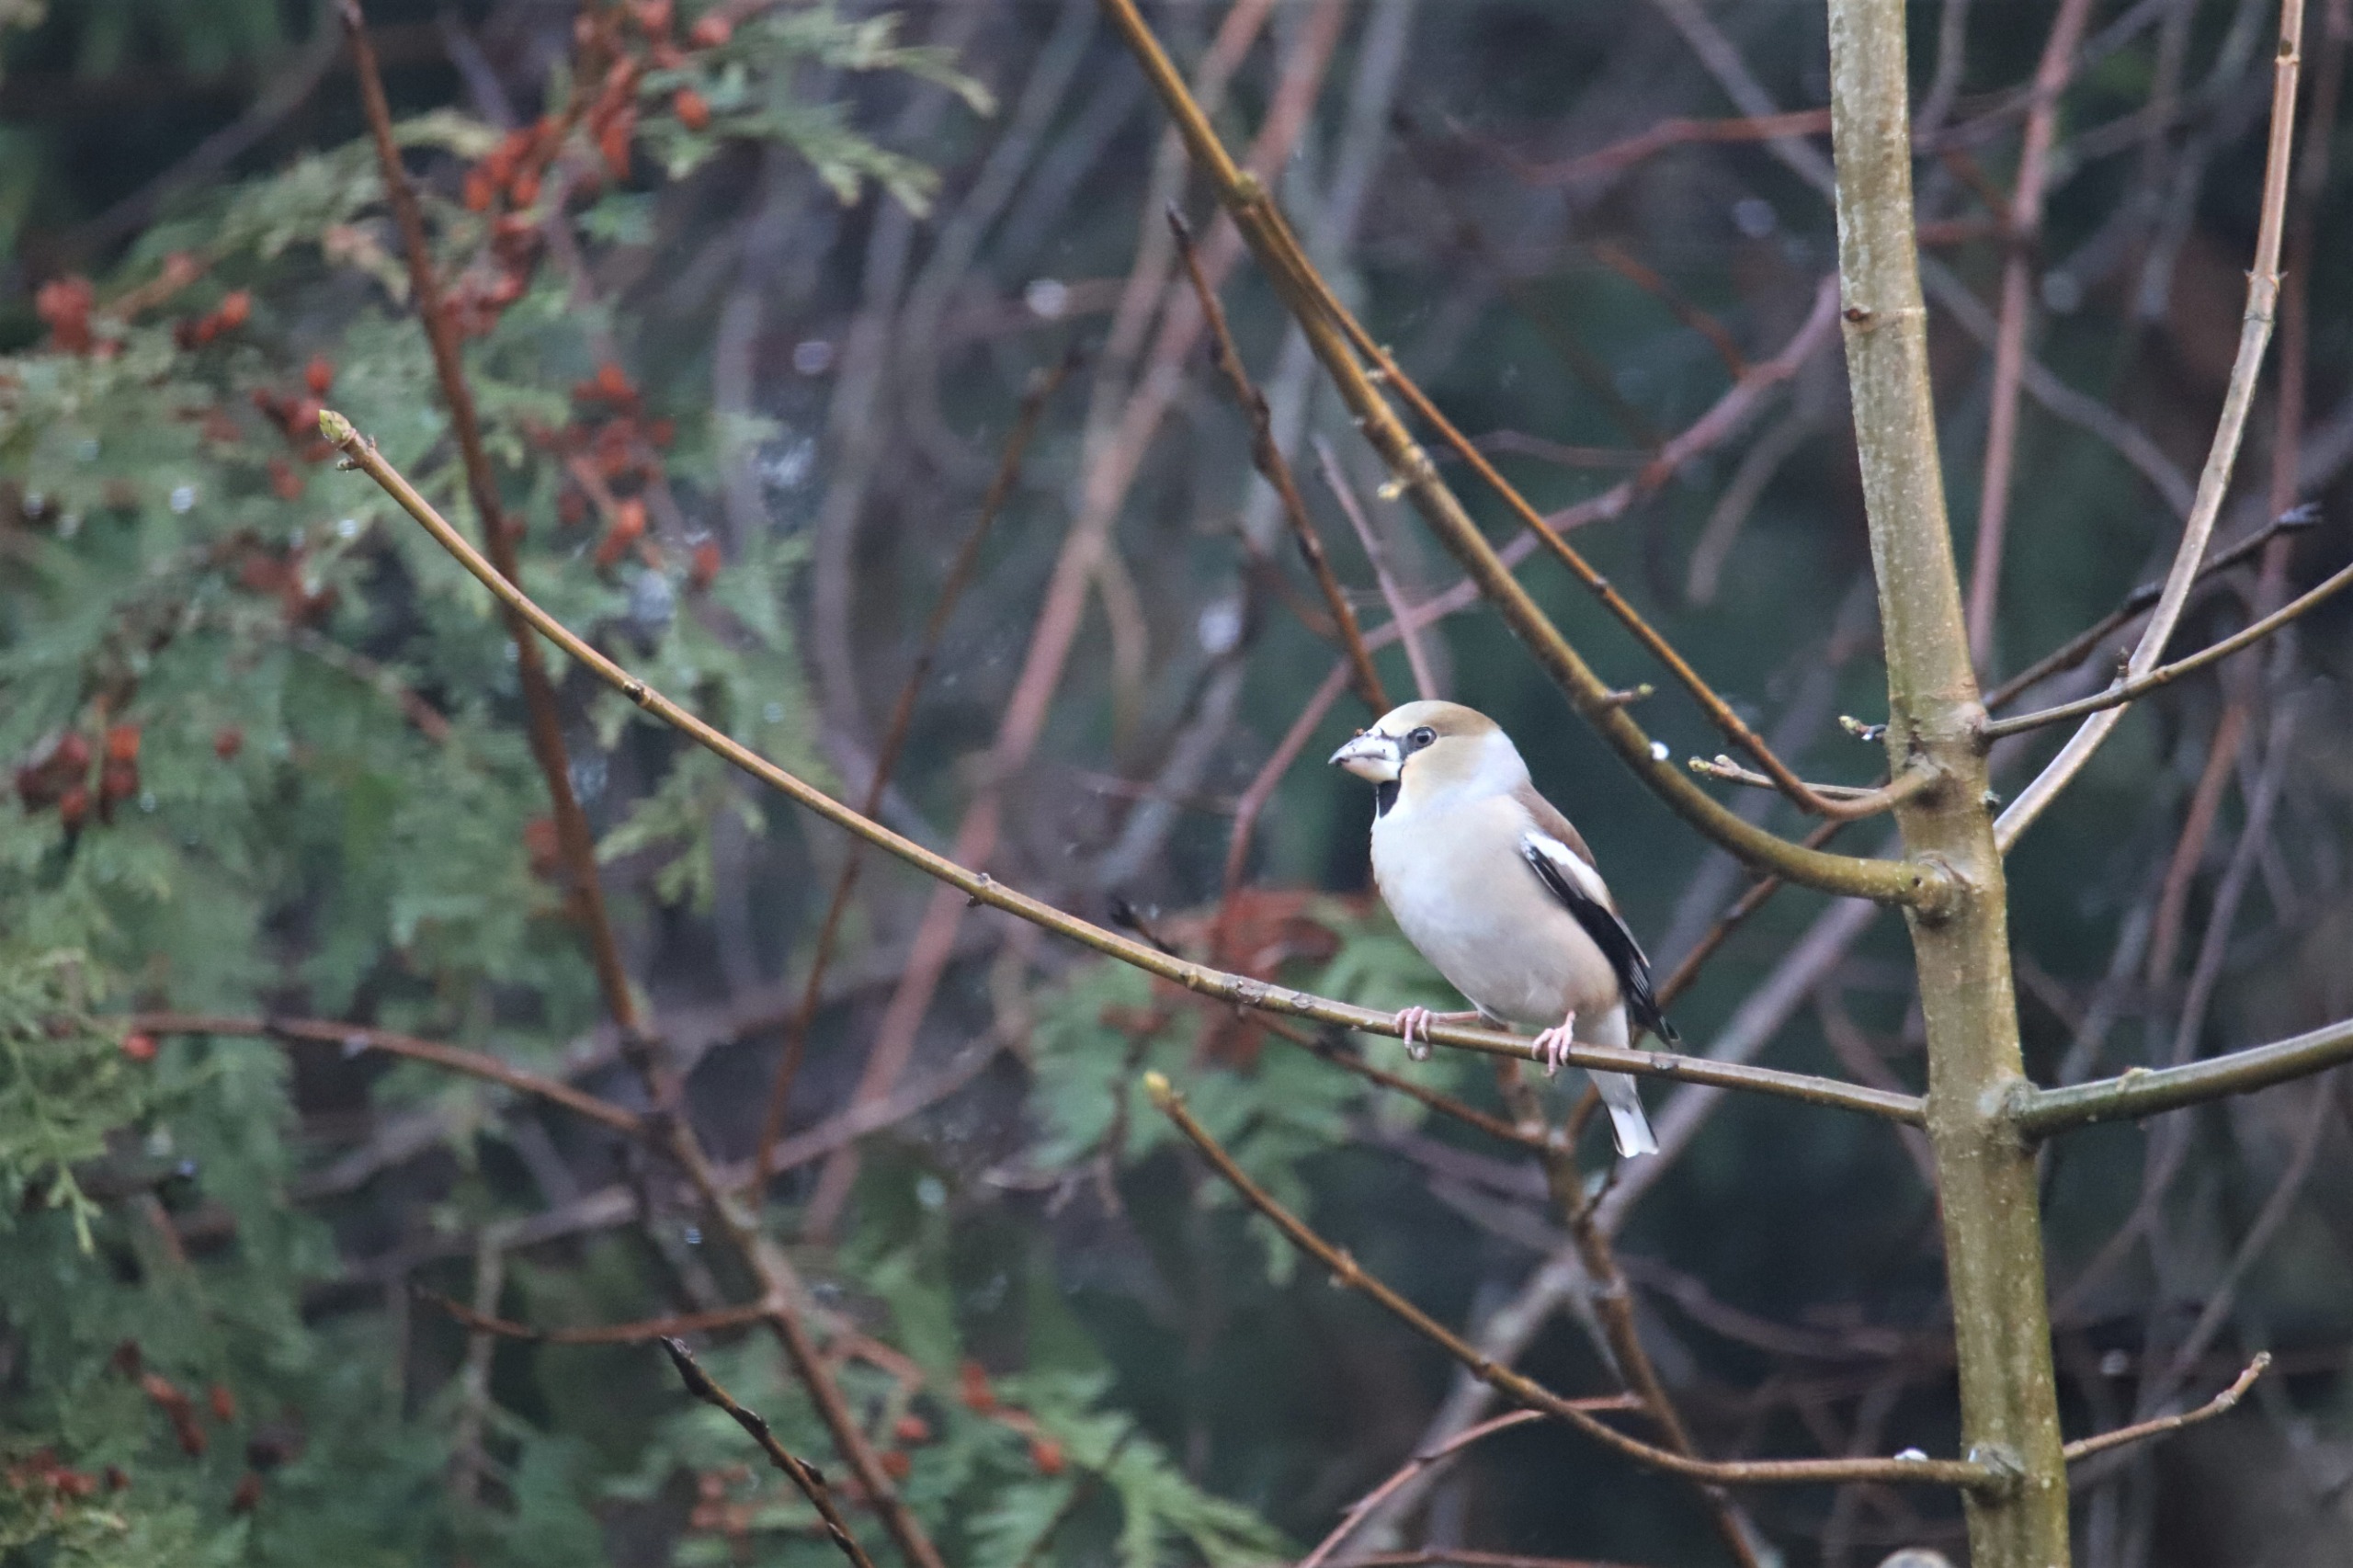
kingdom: Animalia
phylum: Chordata
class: Aves
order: Passeriformes
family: Fringillidae
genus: Coccothraustes
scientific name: Coccothraustes coccothraustes
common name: Kernebider
